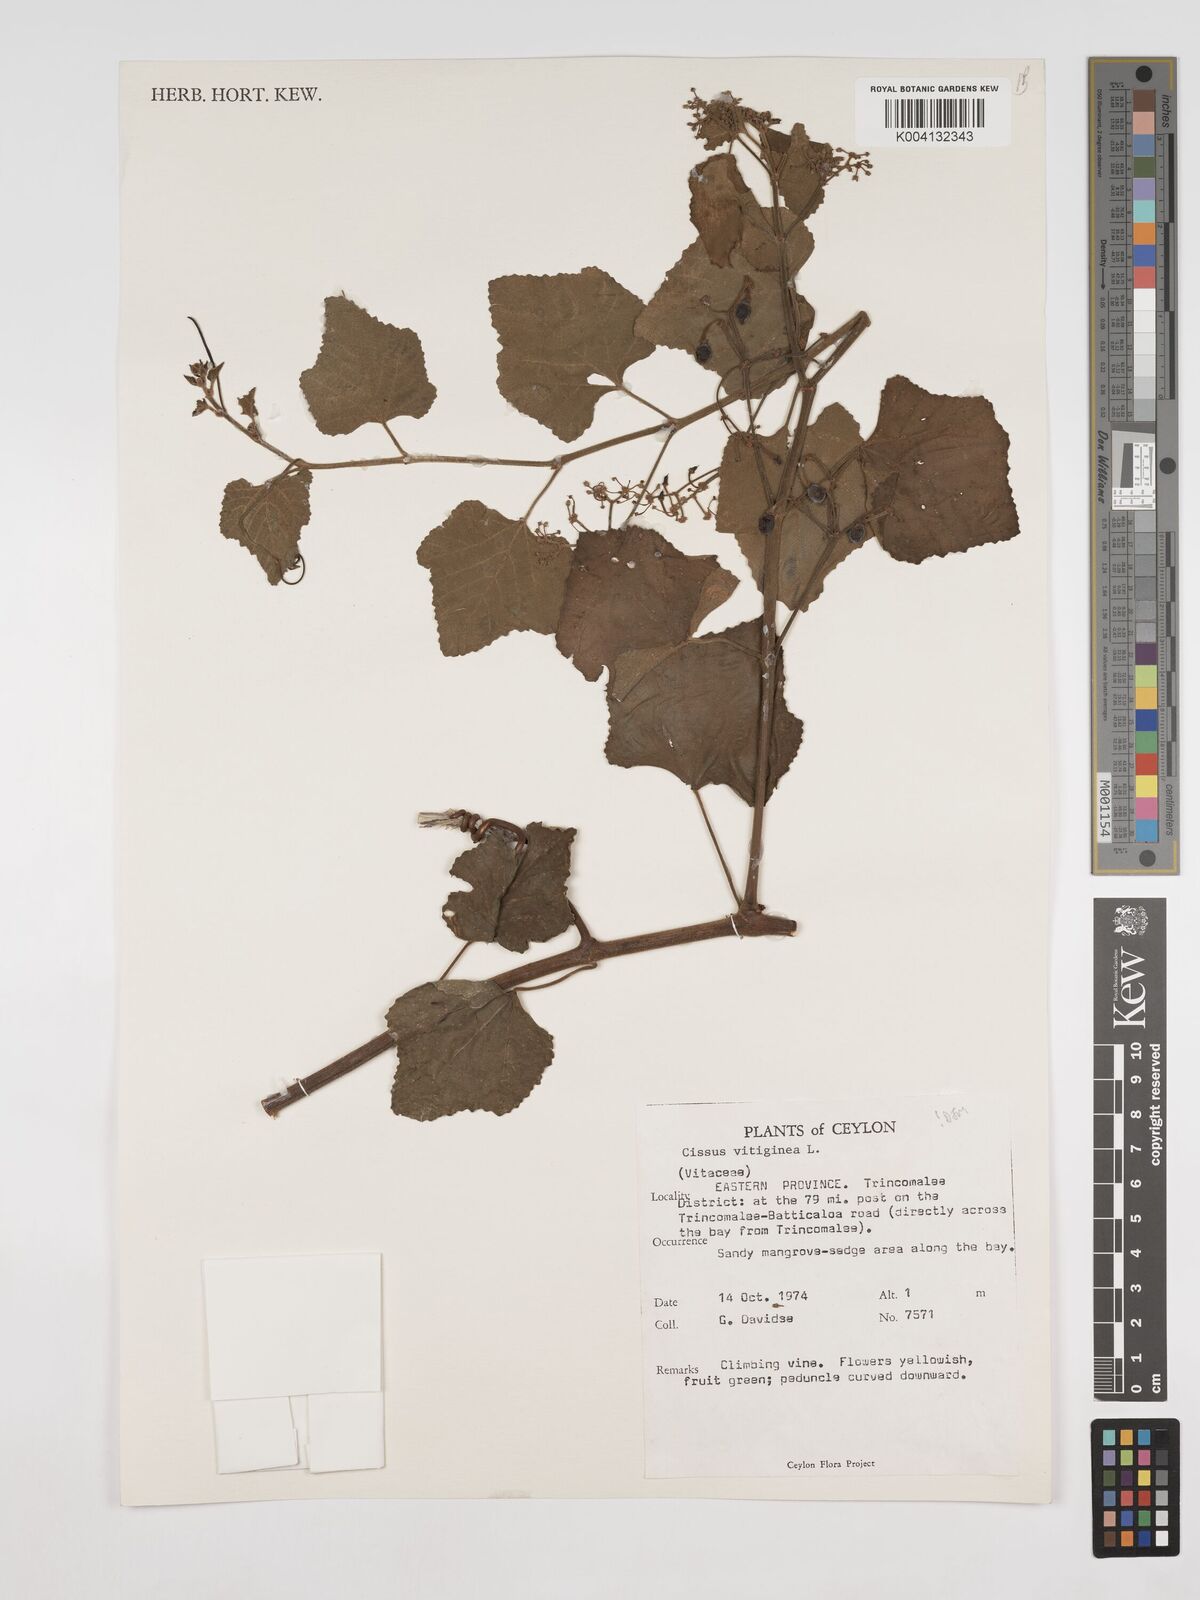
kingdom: Plantae
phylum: Tracheophyta
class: Magnoliopsida
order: Vitales
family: Vitaceae
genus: Cissus
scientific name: Cissus vitiginea
